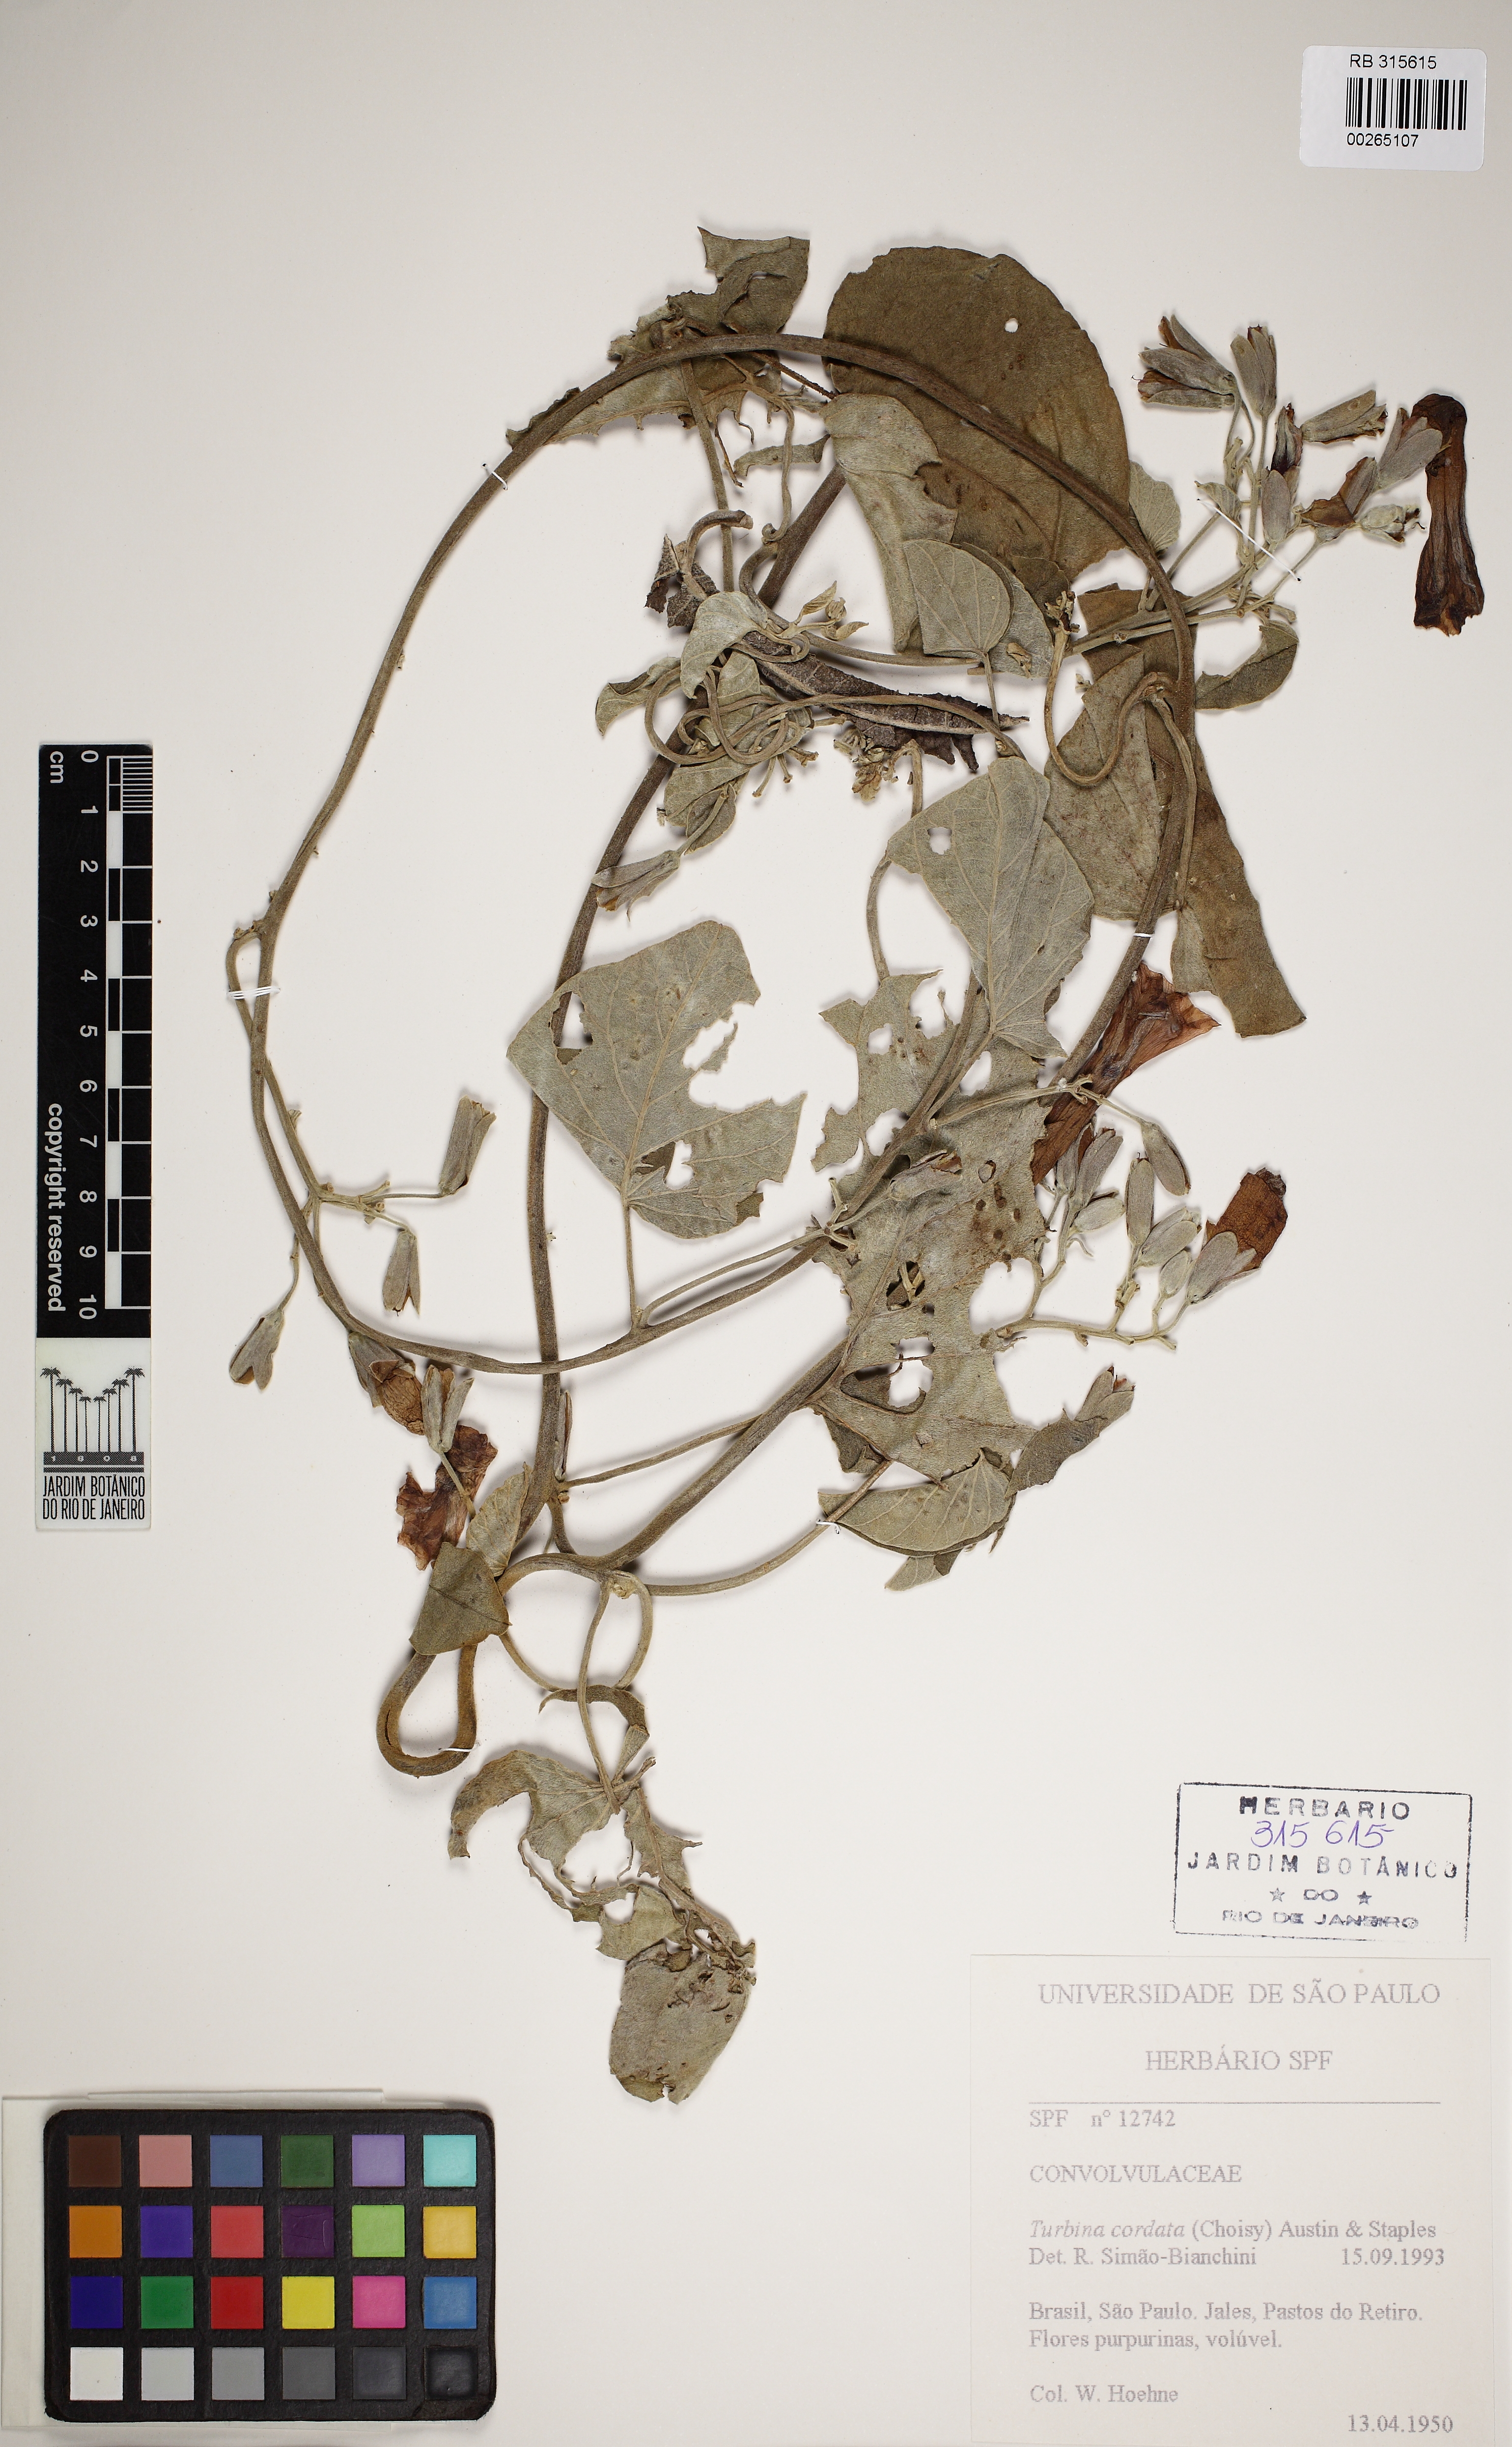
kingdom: Plantae
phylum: Tracheophyta
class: Magnoliopsida
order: Solanales
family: Convolvulaceae
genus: Ipomoea
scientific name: Ipomoea sericosepala
